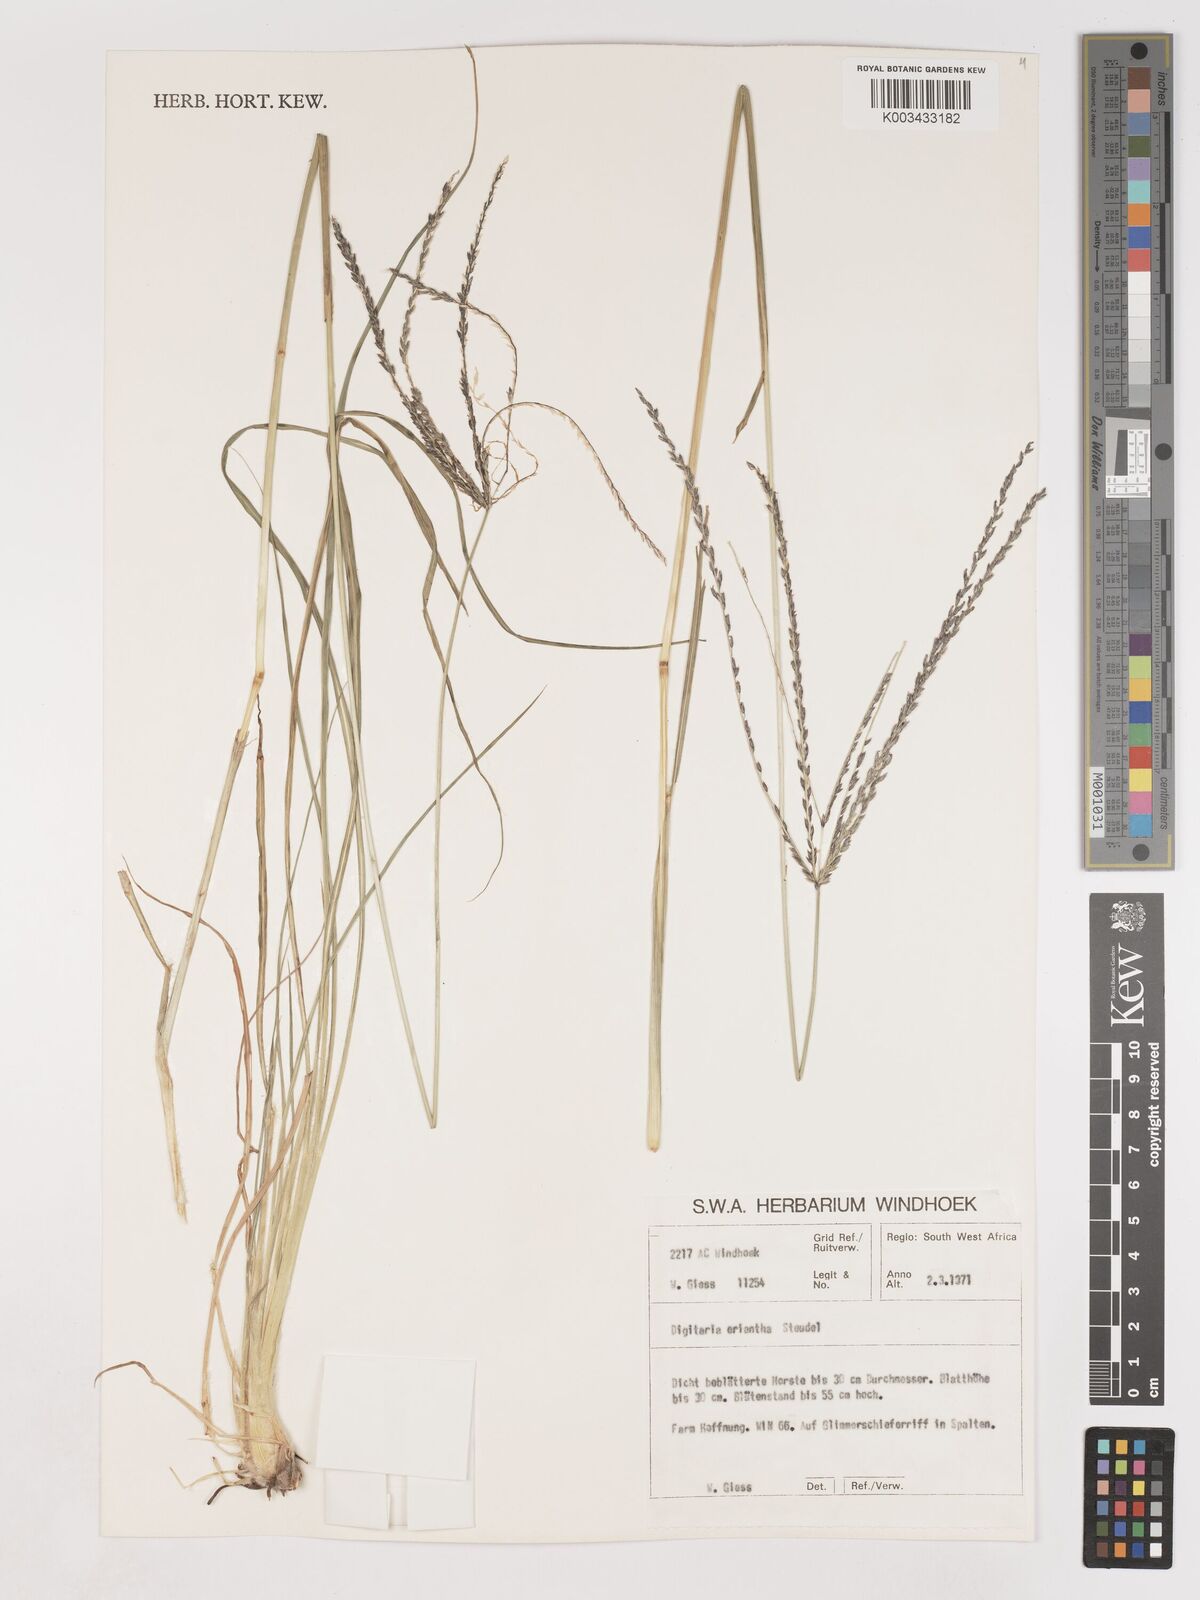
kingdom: Plantae
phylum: Tracheophyta
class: Liliopsida
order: Poales
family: Poaceae
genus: Digitaria
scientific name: Digitaria eriantha
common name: Digitgrass
